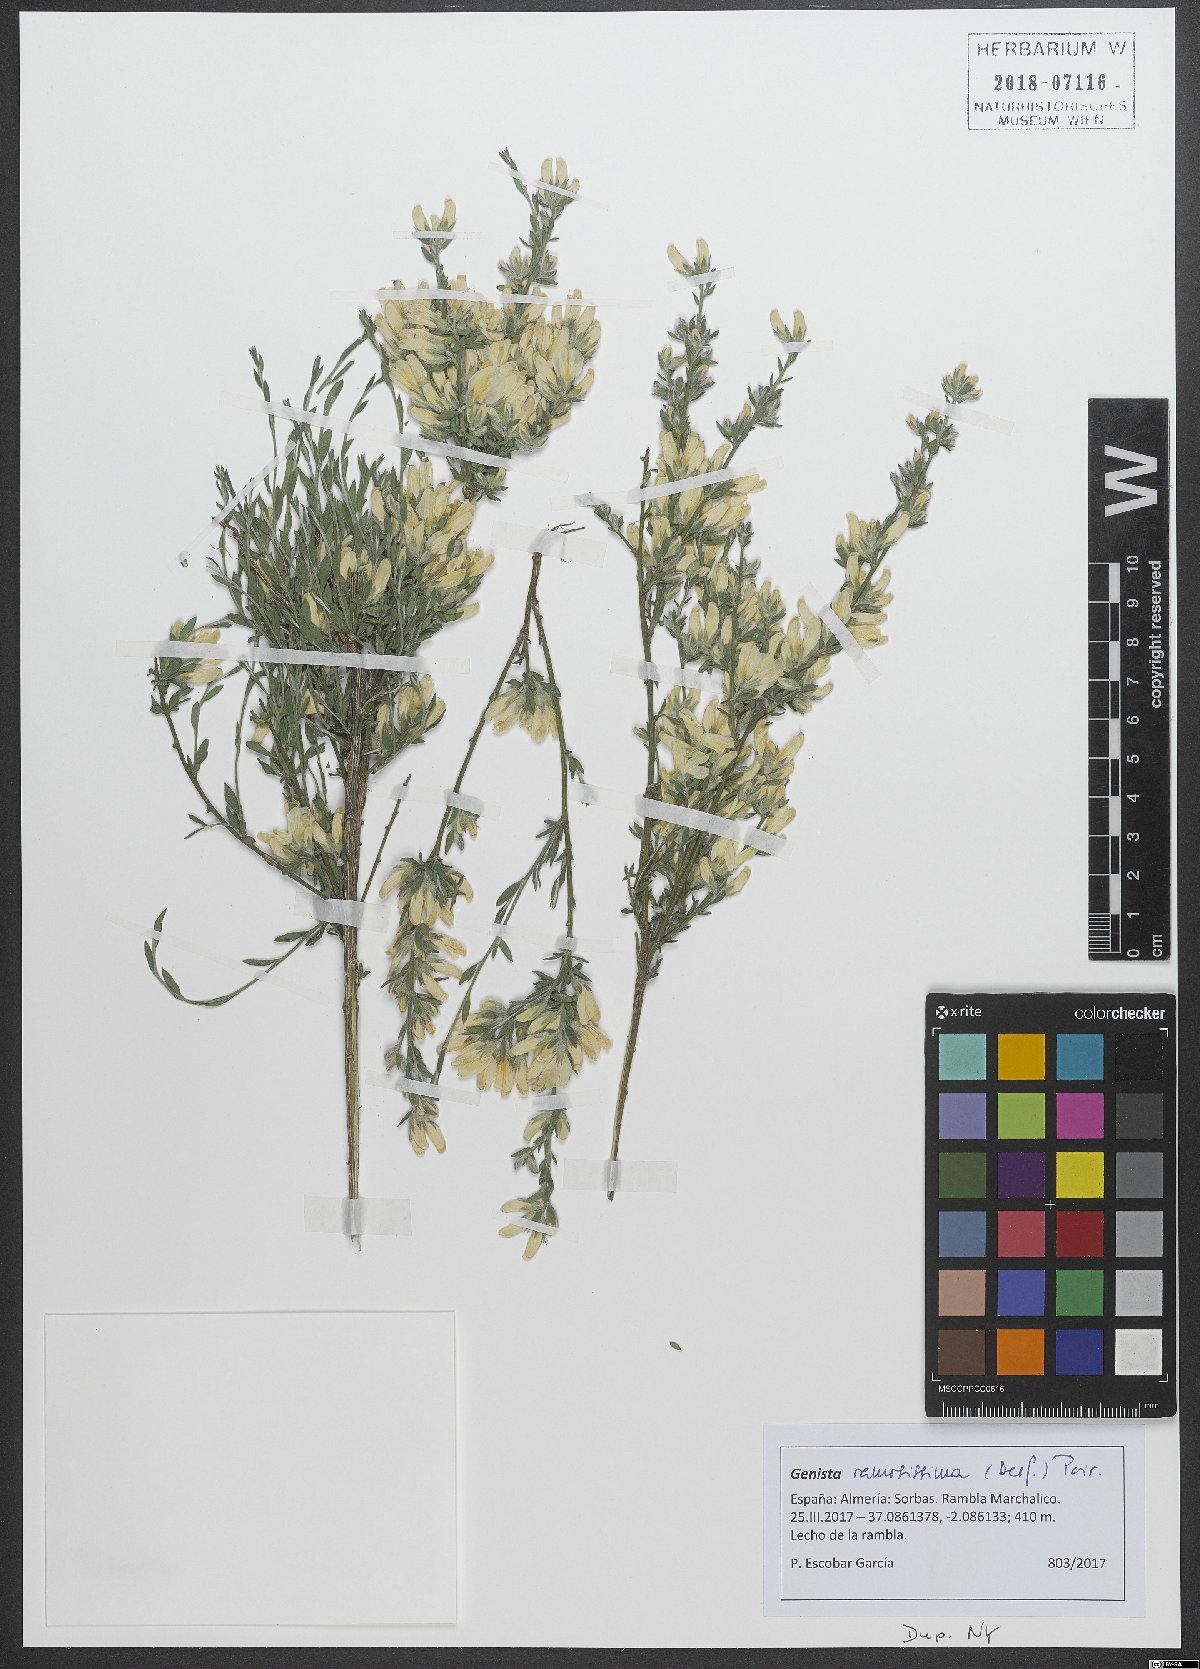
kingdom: Plantae
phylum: Tracheophyta
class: Magnoliopsida
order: Fabales
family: Fabaceae
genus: Genista
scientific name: Genista ramosissima
